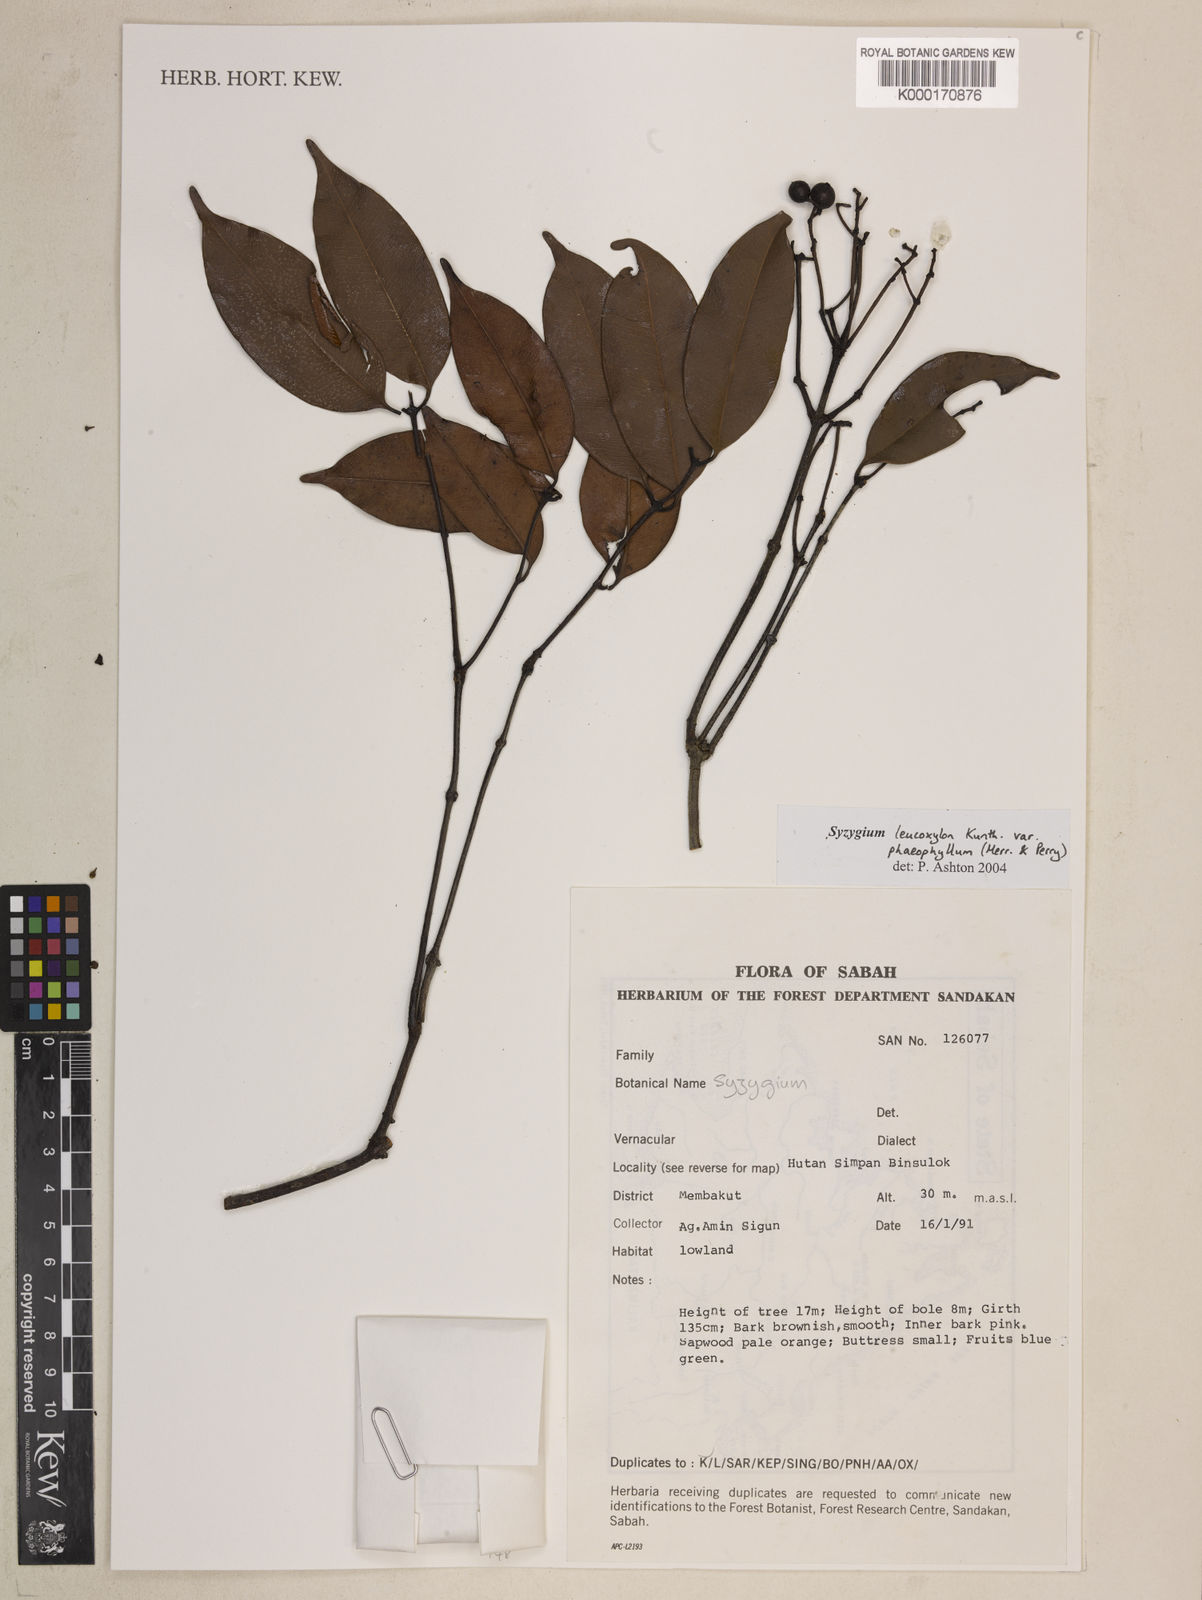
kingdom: Plantae
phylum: Tracheophyta
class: Magnoliopsida
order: Myrtales
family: Myrtaceae
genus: Syzygium
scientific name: Syzygium nigricans
